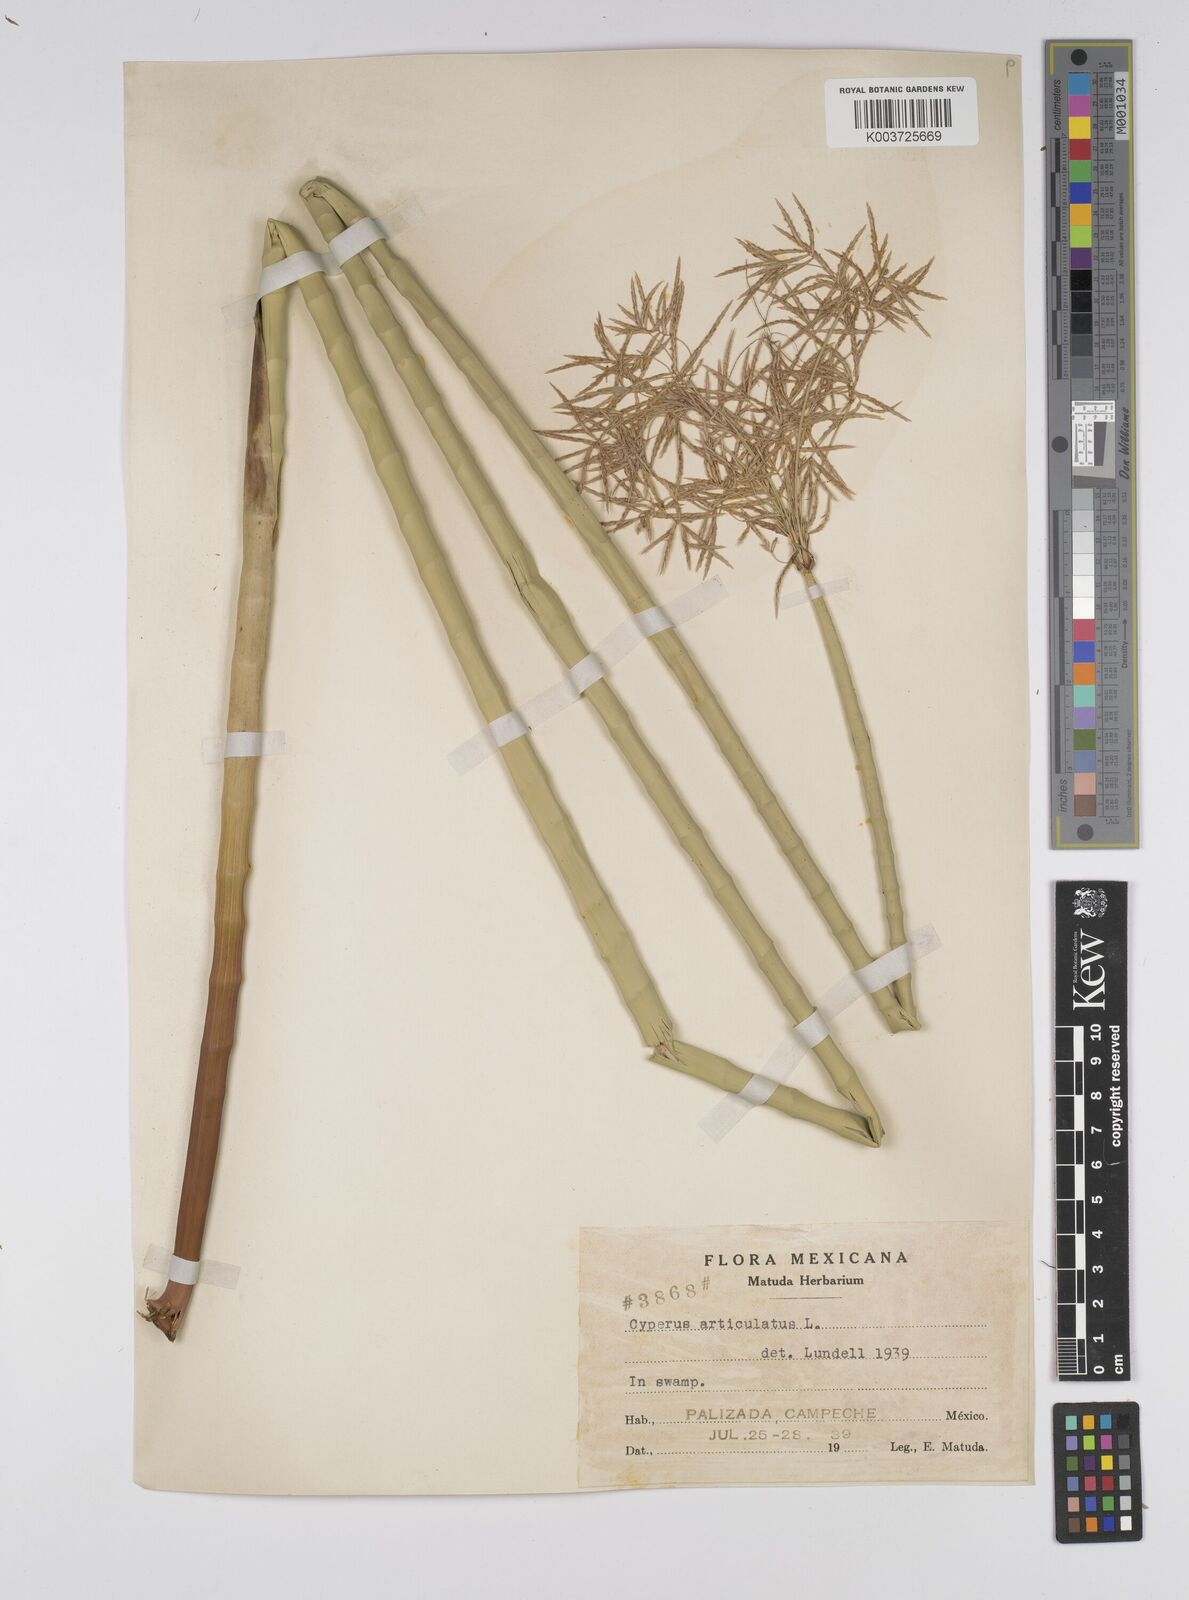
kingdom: Plantae
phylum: Tracheophyta
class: Liliopsida
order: Poales
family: Cyperaceae
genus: Cyperus
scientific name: Cyperus articulatus
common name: Jointed flatsedge
